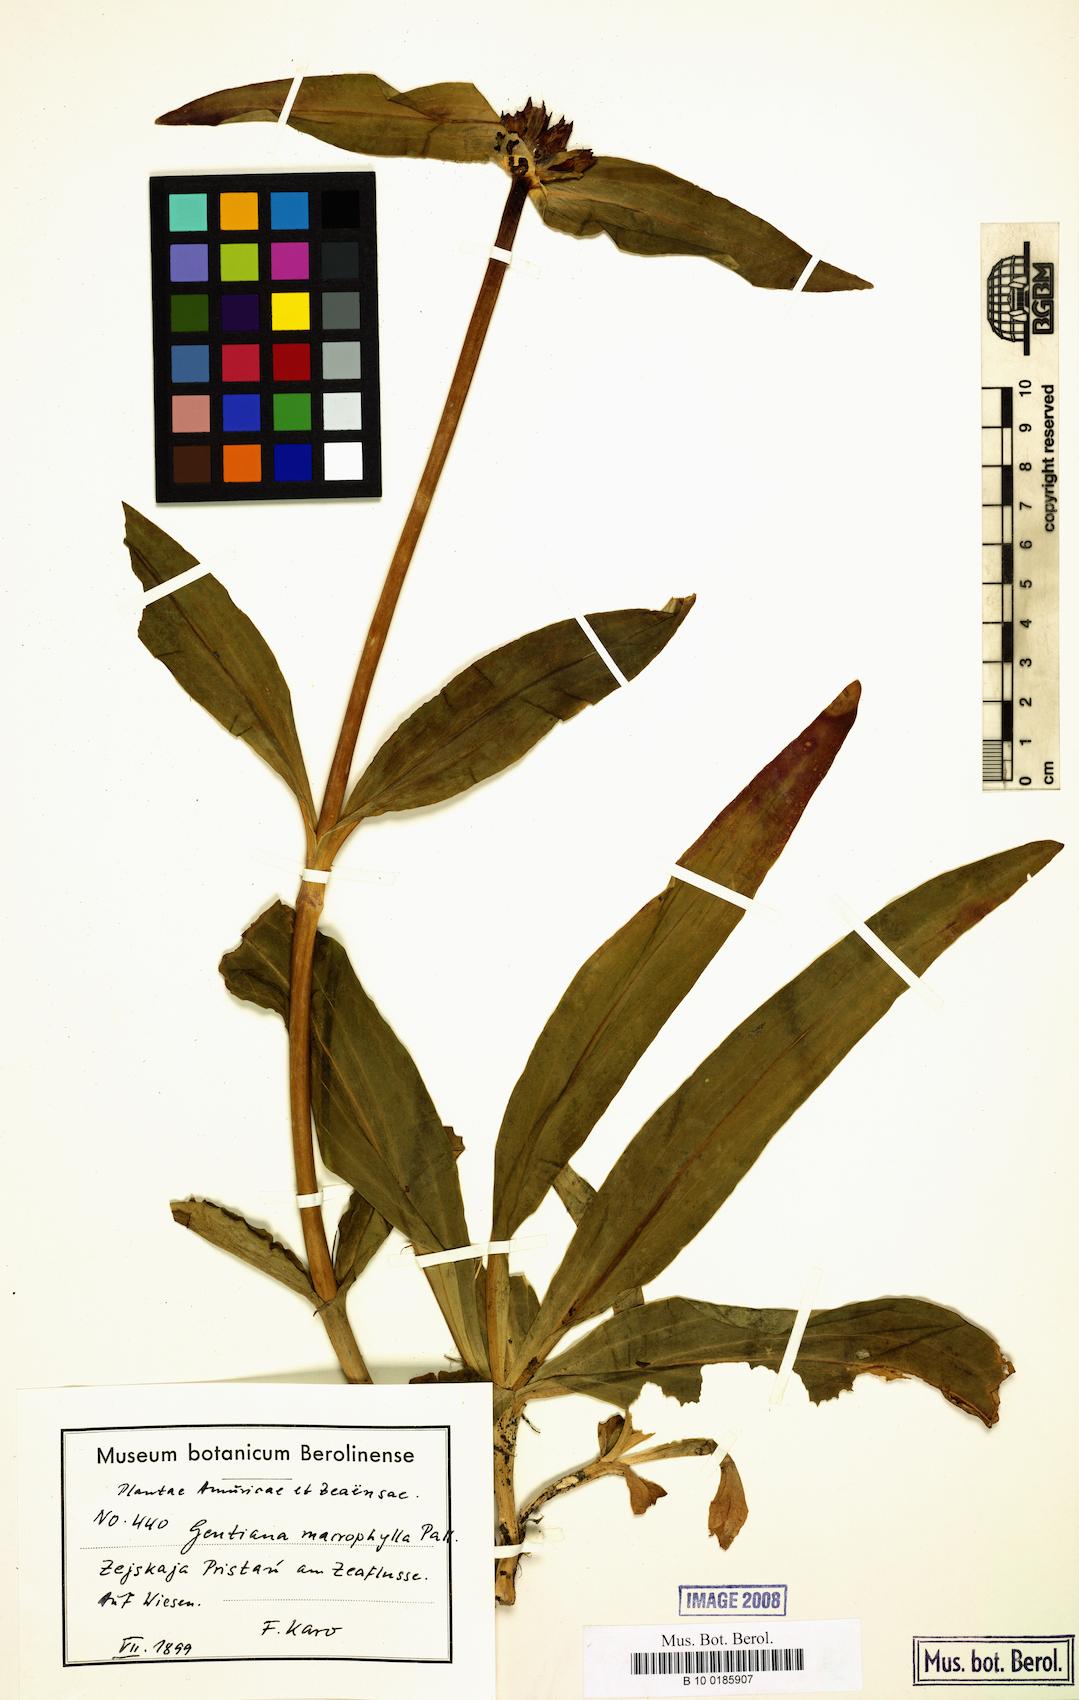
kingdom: Plantae
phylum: Tracheophyta
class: Magnoliopsida
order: Gentianales
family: Gentianaceae
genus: Gentiana
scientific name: Gentiana macrophylla
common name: Large-leaf gentian
